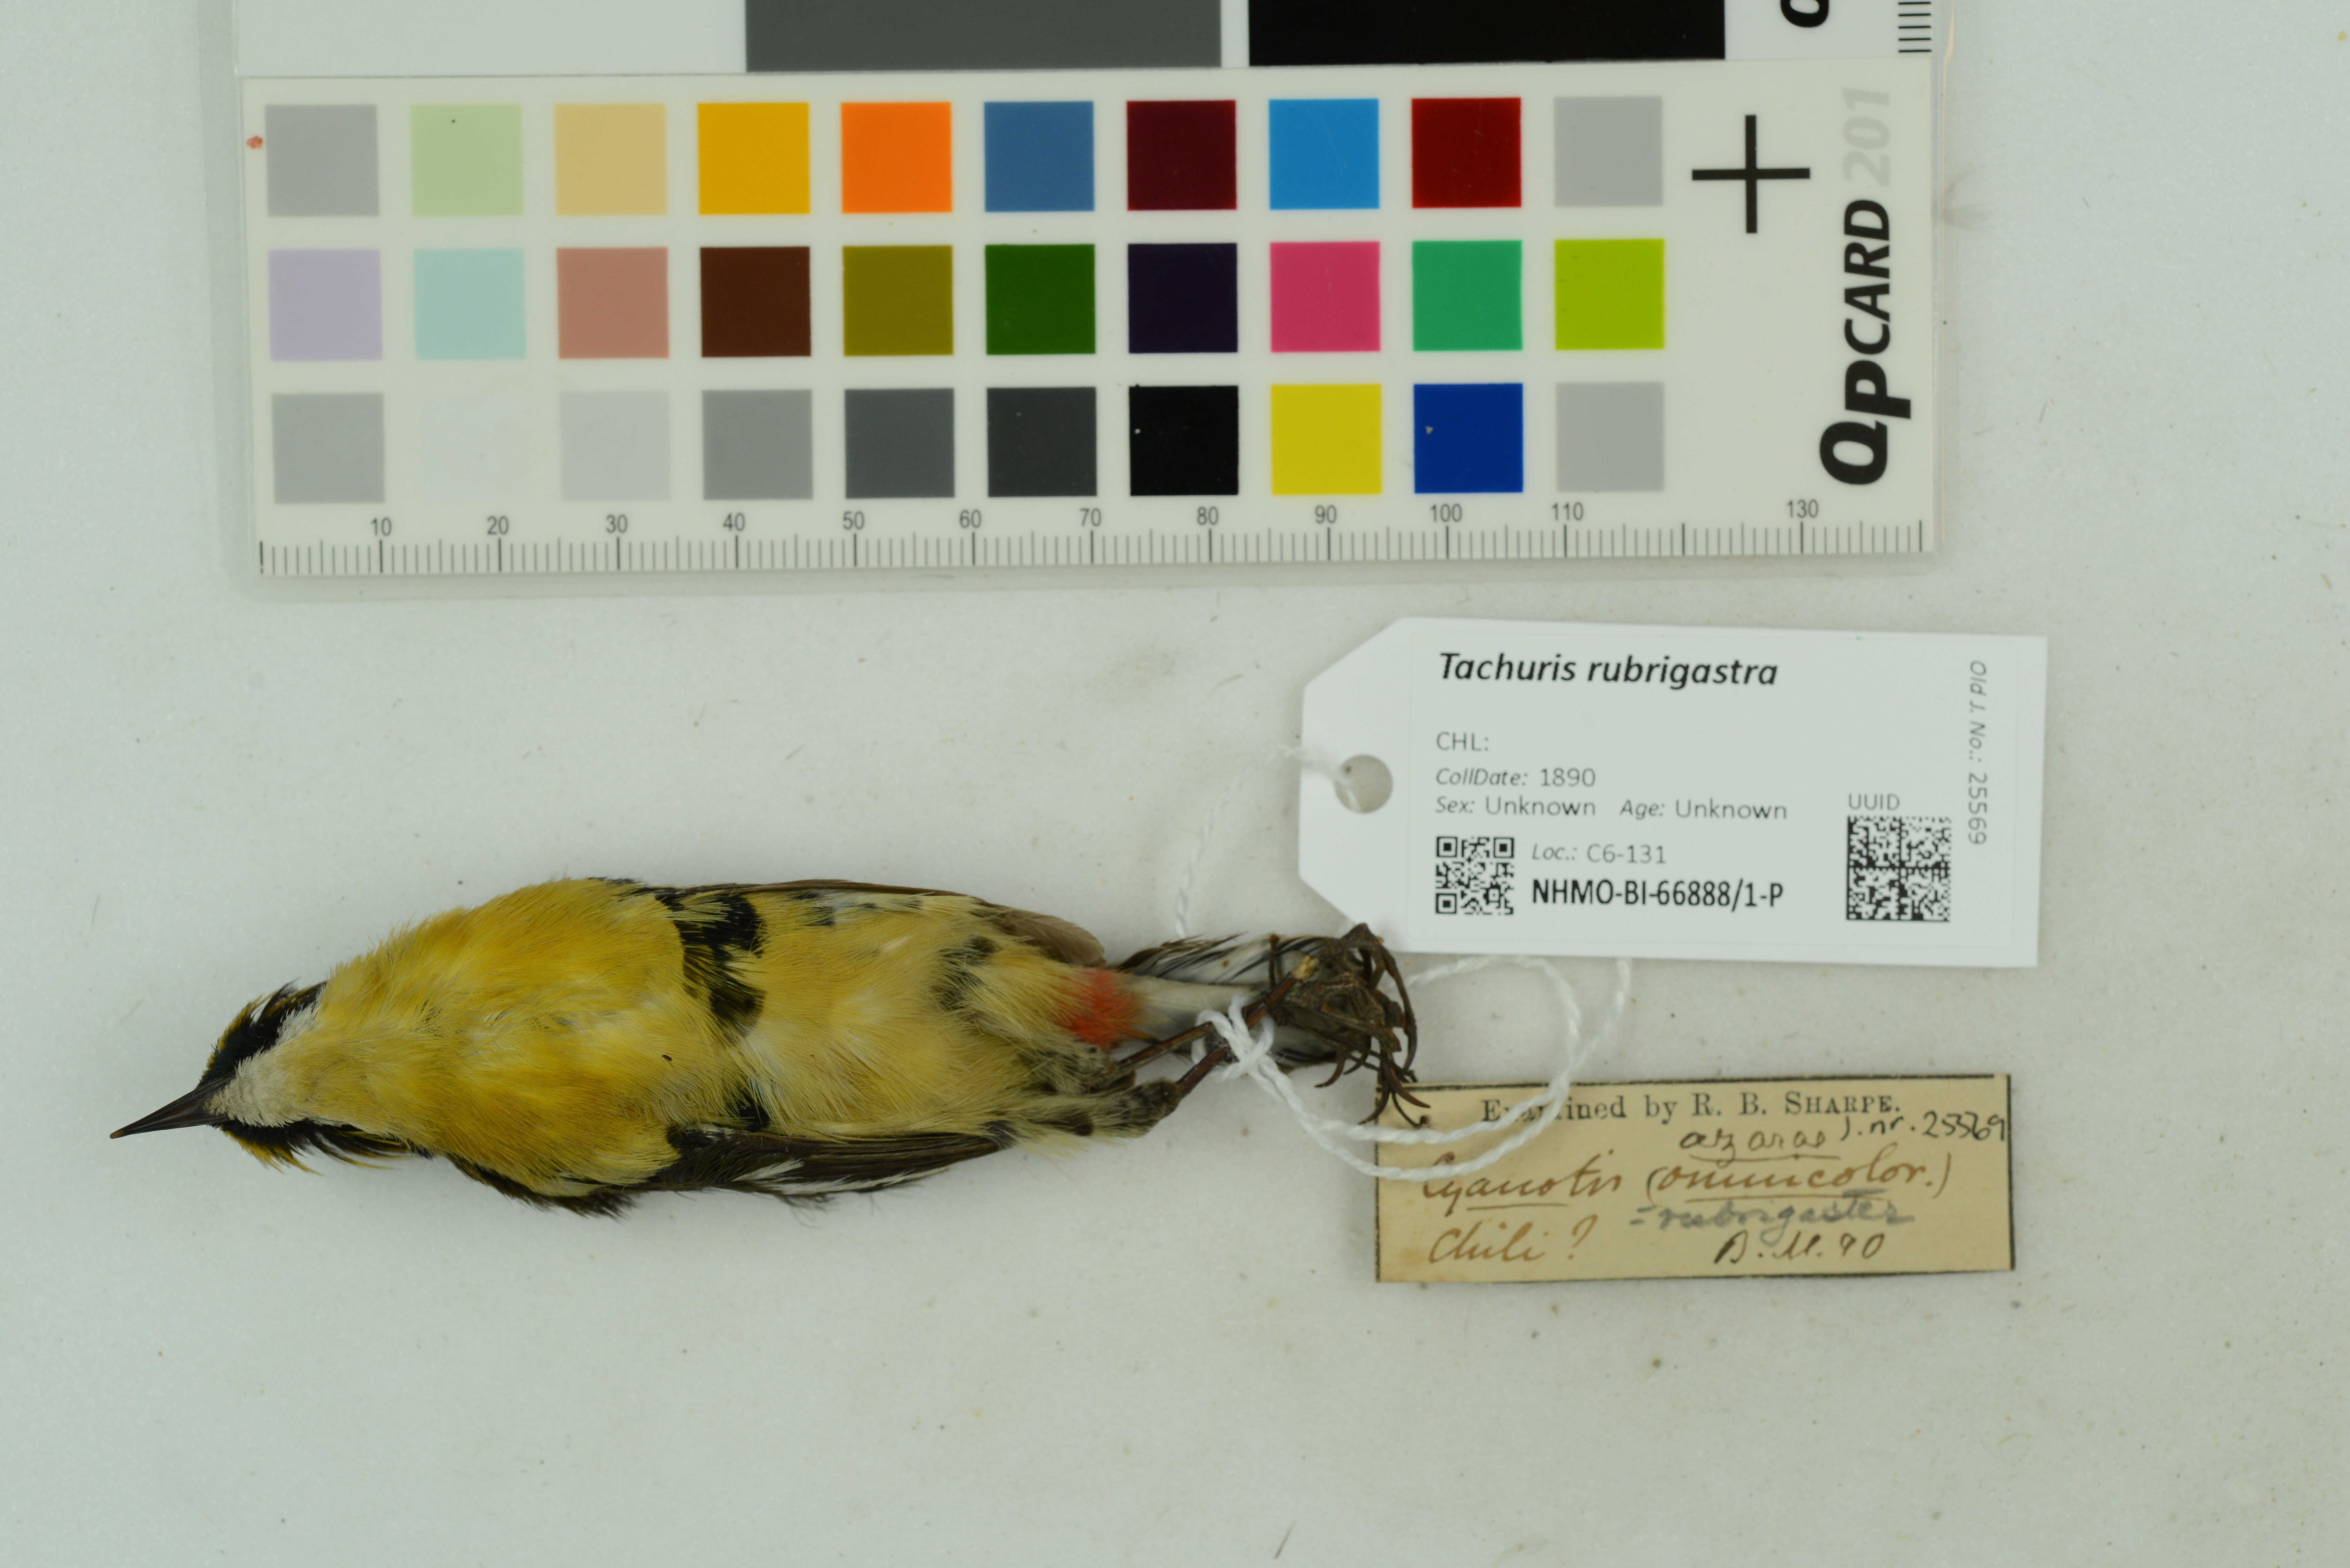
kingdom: Animalia
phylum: Chordata
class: Aves
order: Passeriformes
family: Tyrannidae
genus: Tachuris
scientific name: Tachuris rubrigastra
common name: Many-colored rush tyrant
